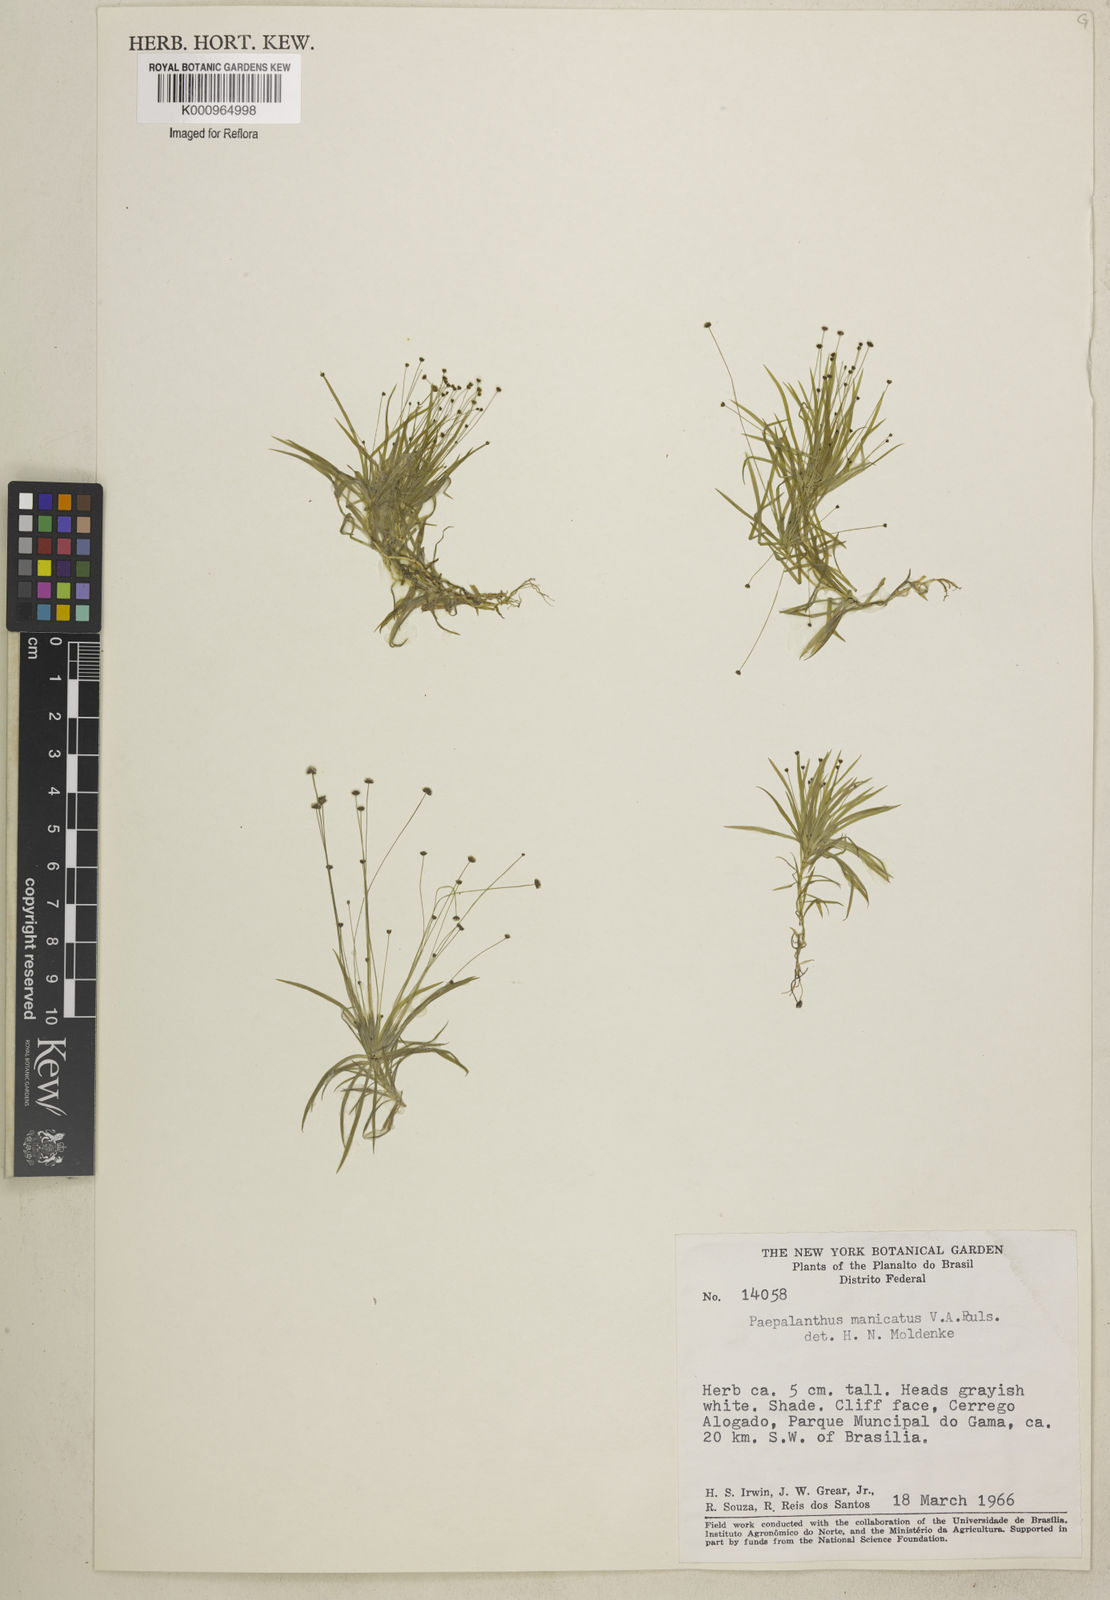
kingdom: Plantae
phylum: Tracheophyta
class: Liliopsida
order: Poales
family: Eriocaulaceae
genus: Paepalanthus
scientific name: Paepalanthus manicatus
